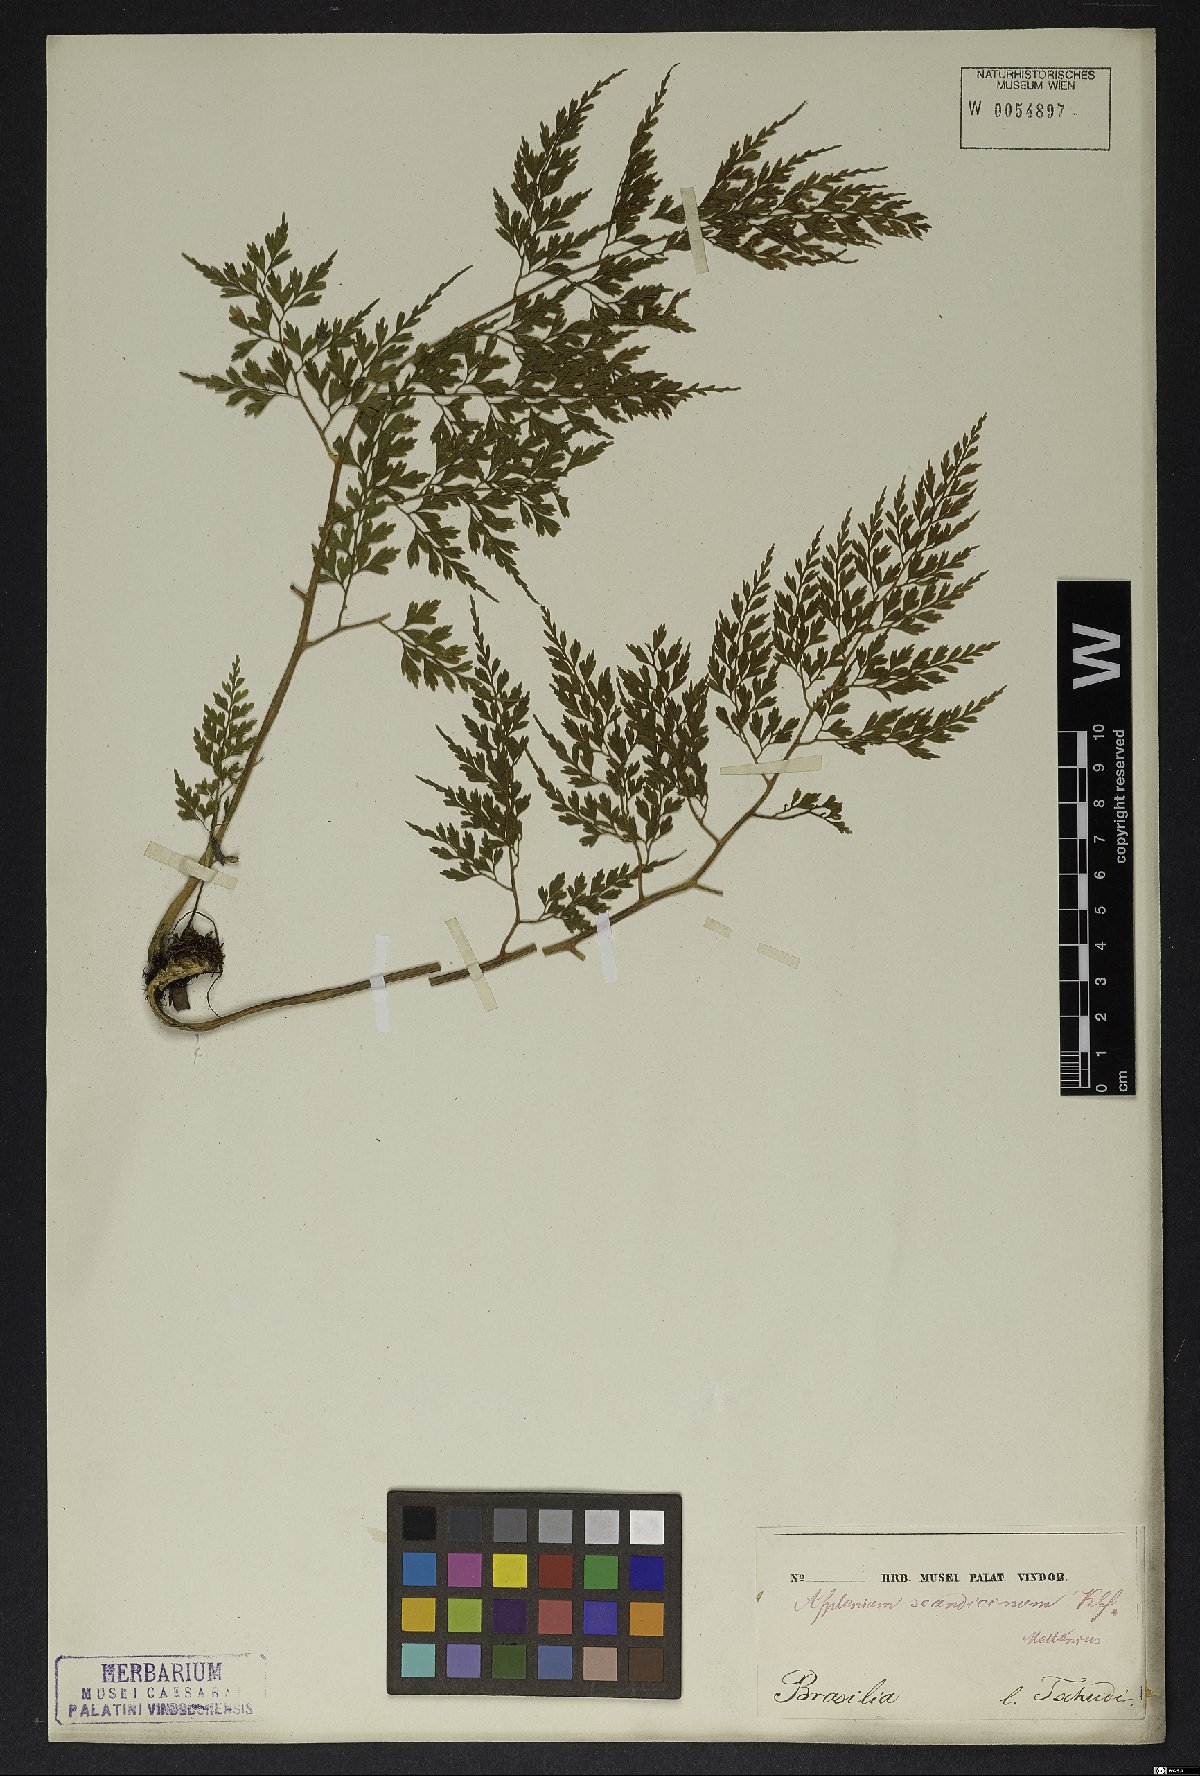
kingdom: Plantae
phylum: Tracheophyta
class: Polypodiopsida
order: Polypodiales
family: Aspleniaceae
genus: Asplenium
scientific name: Asplenium scandicinum
